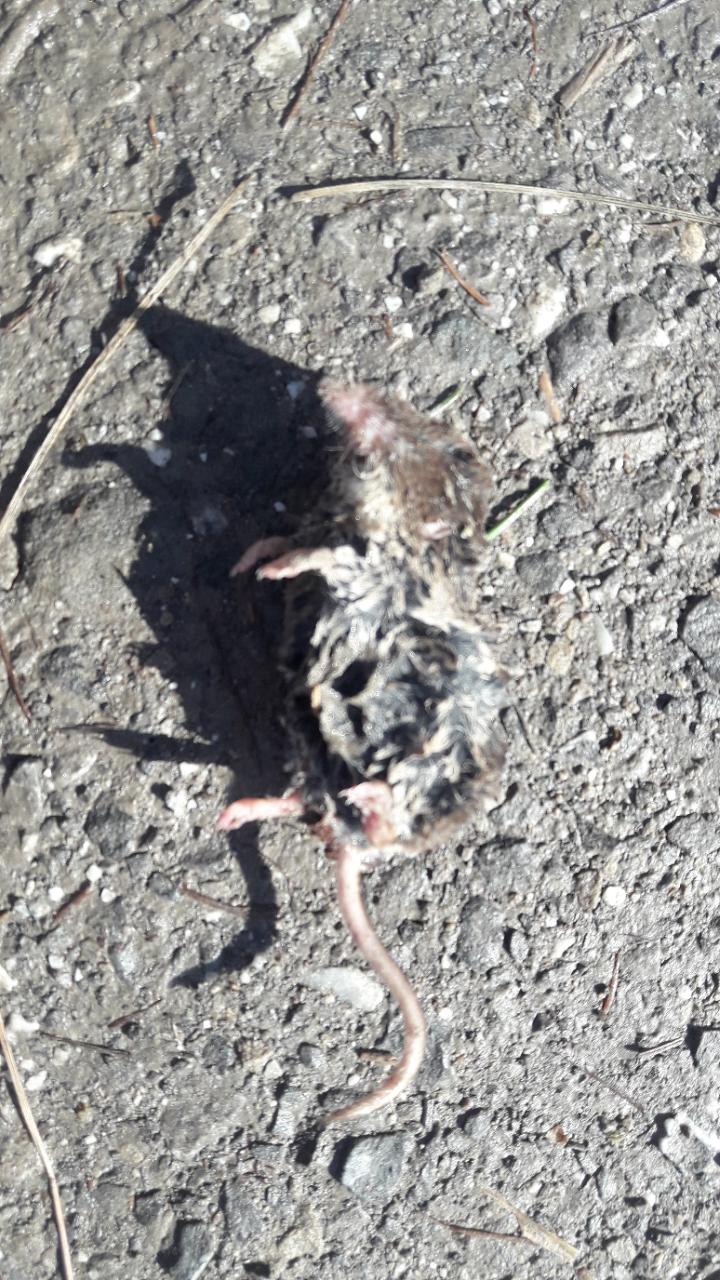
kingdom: Animalia
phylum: Chordata
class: Mammalia
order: Soricomorpha
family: Soricidae
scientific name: Soricidae
